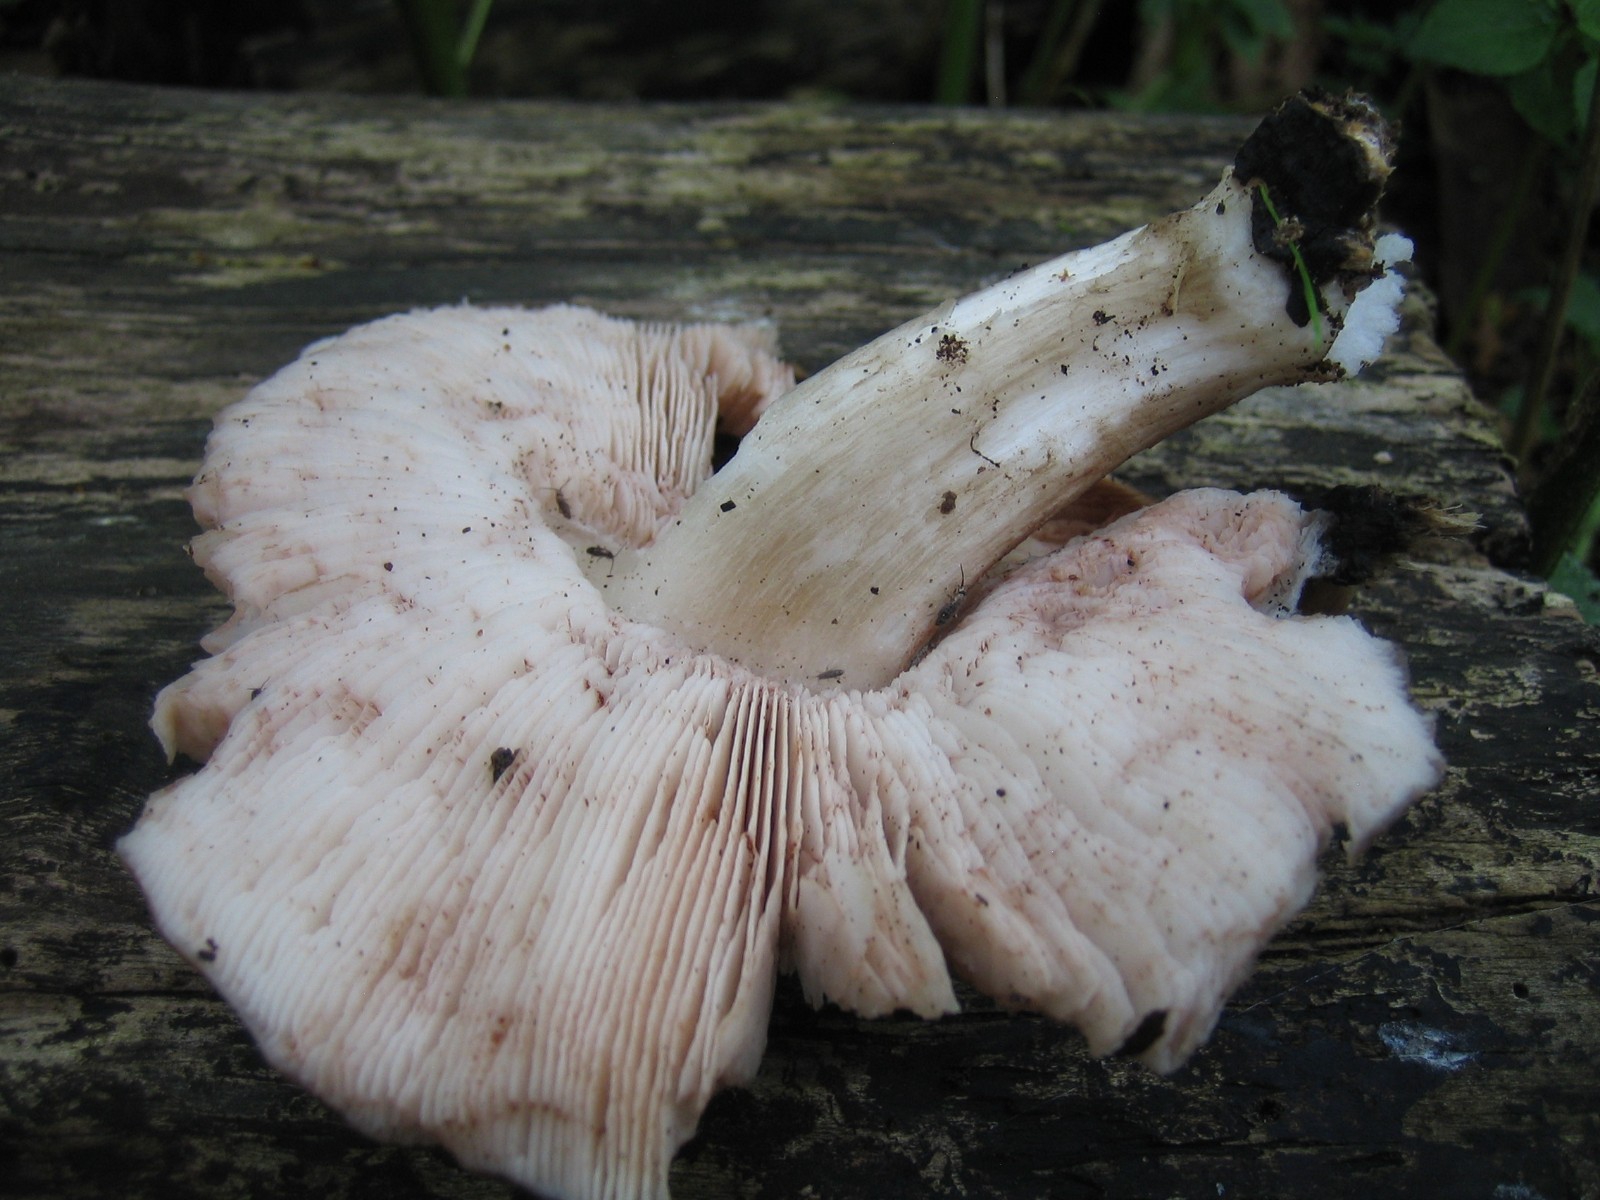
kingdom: Fungi
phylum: Basidiomycota
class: Agaricomycetes
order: Agaricales
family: Pluteaceae
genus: Pluteus
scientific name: Pluteus cervinus
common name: sodfarvet skærmhat
